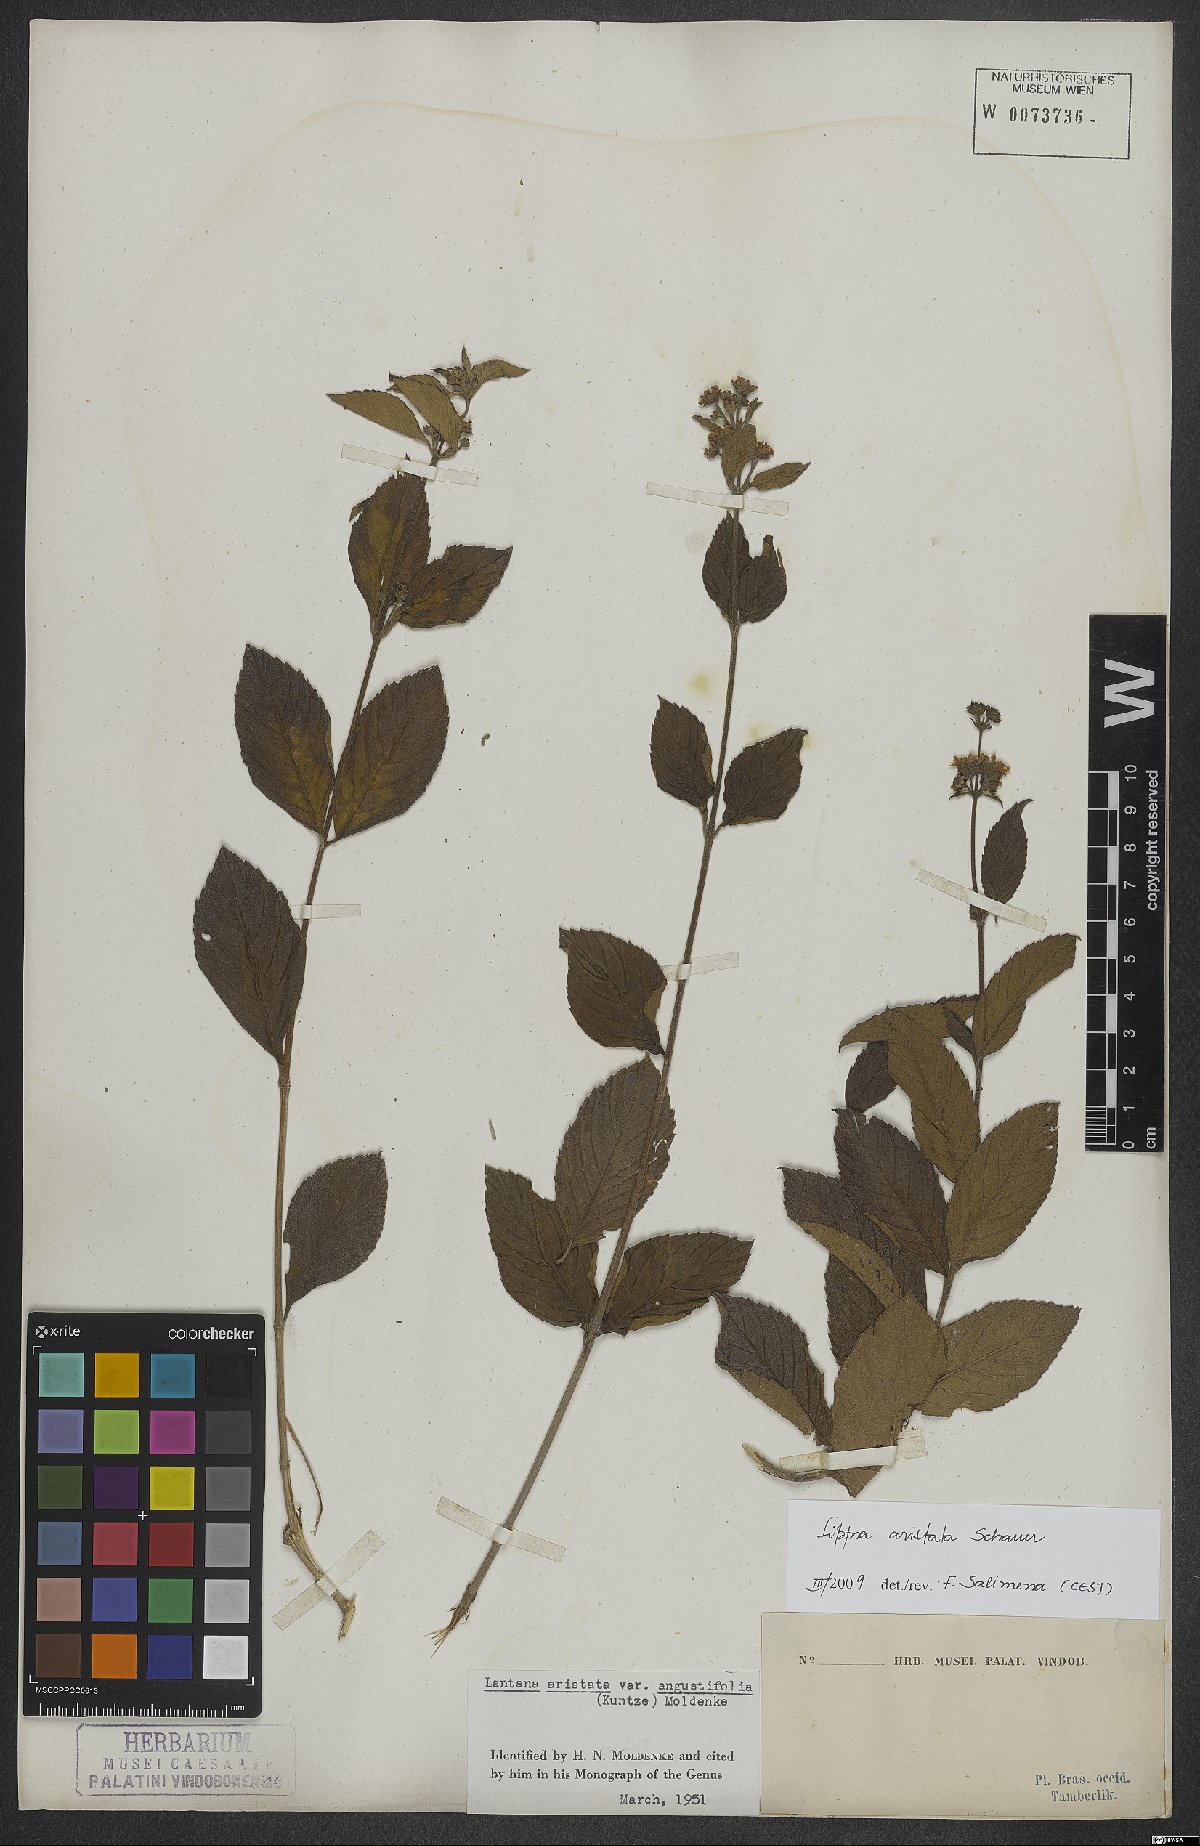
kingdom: Plantae
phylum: Tracheophyta
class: Magnoliopsida
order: Lamiales
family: Verbenaceae
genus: Lippia
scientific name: Lippia aristata
